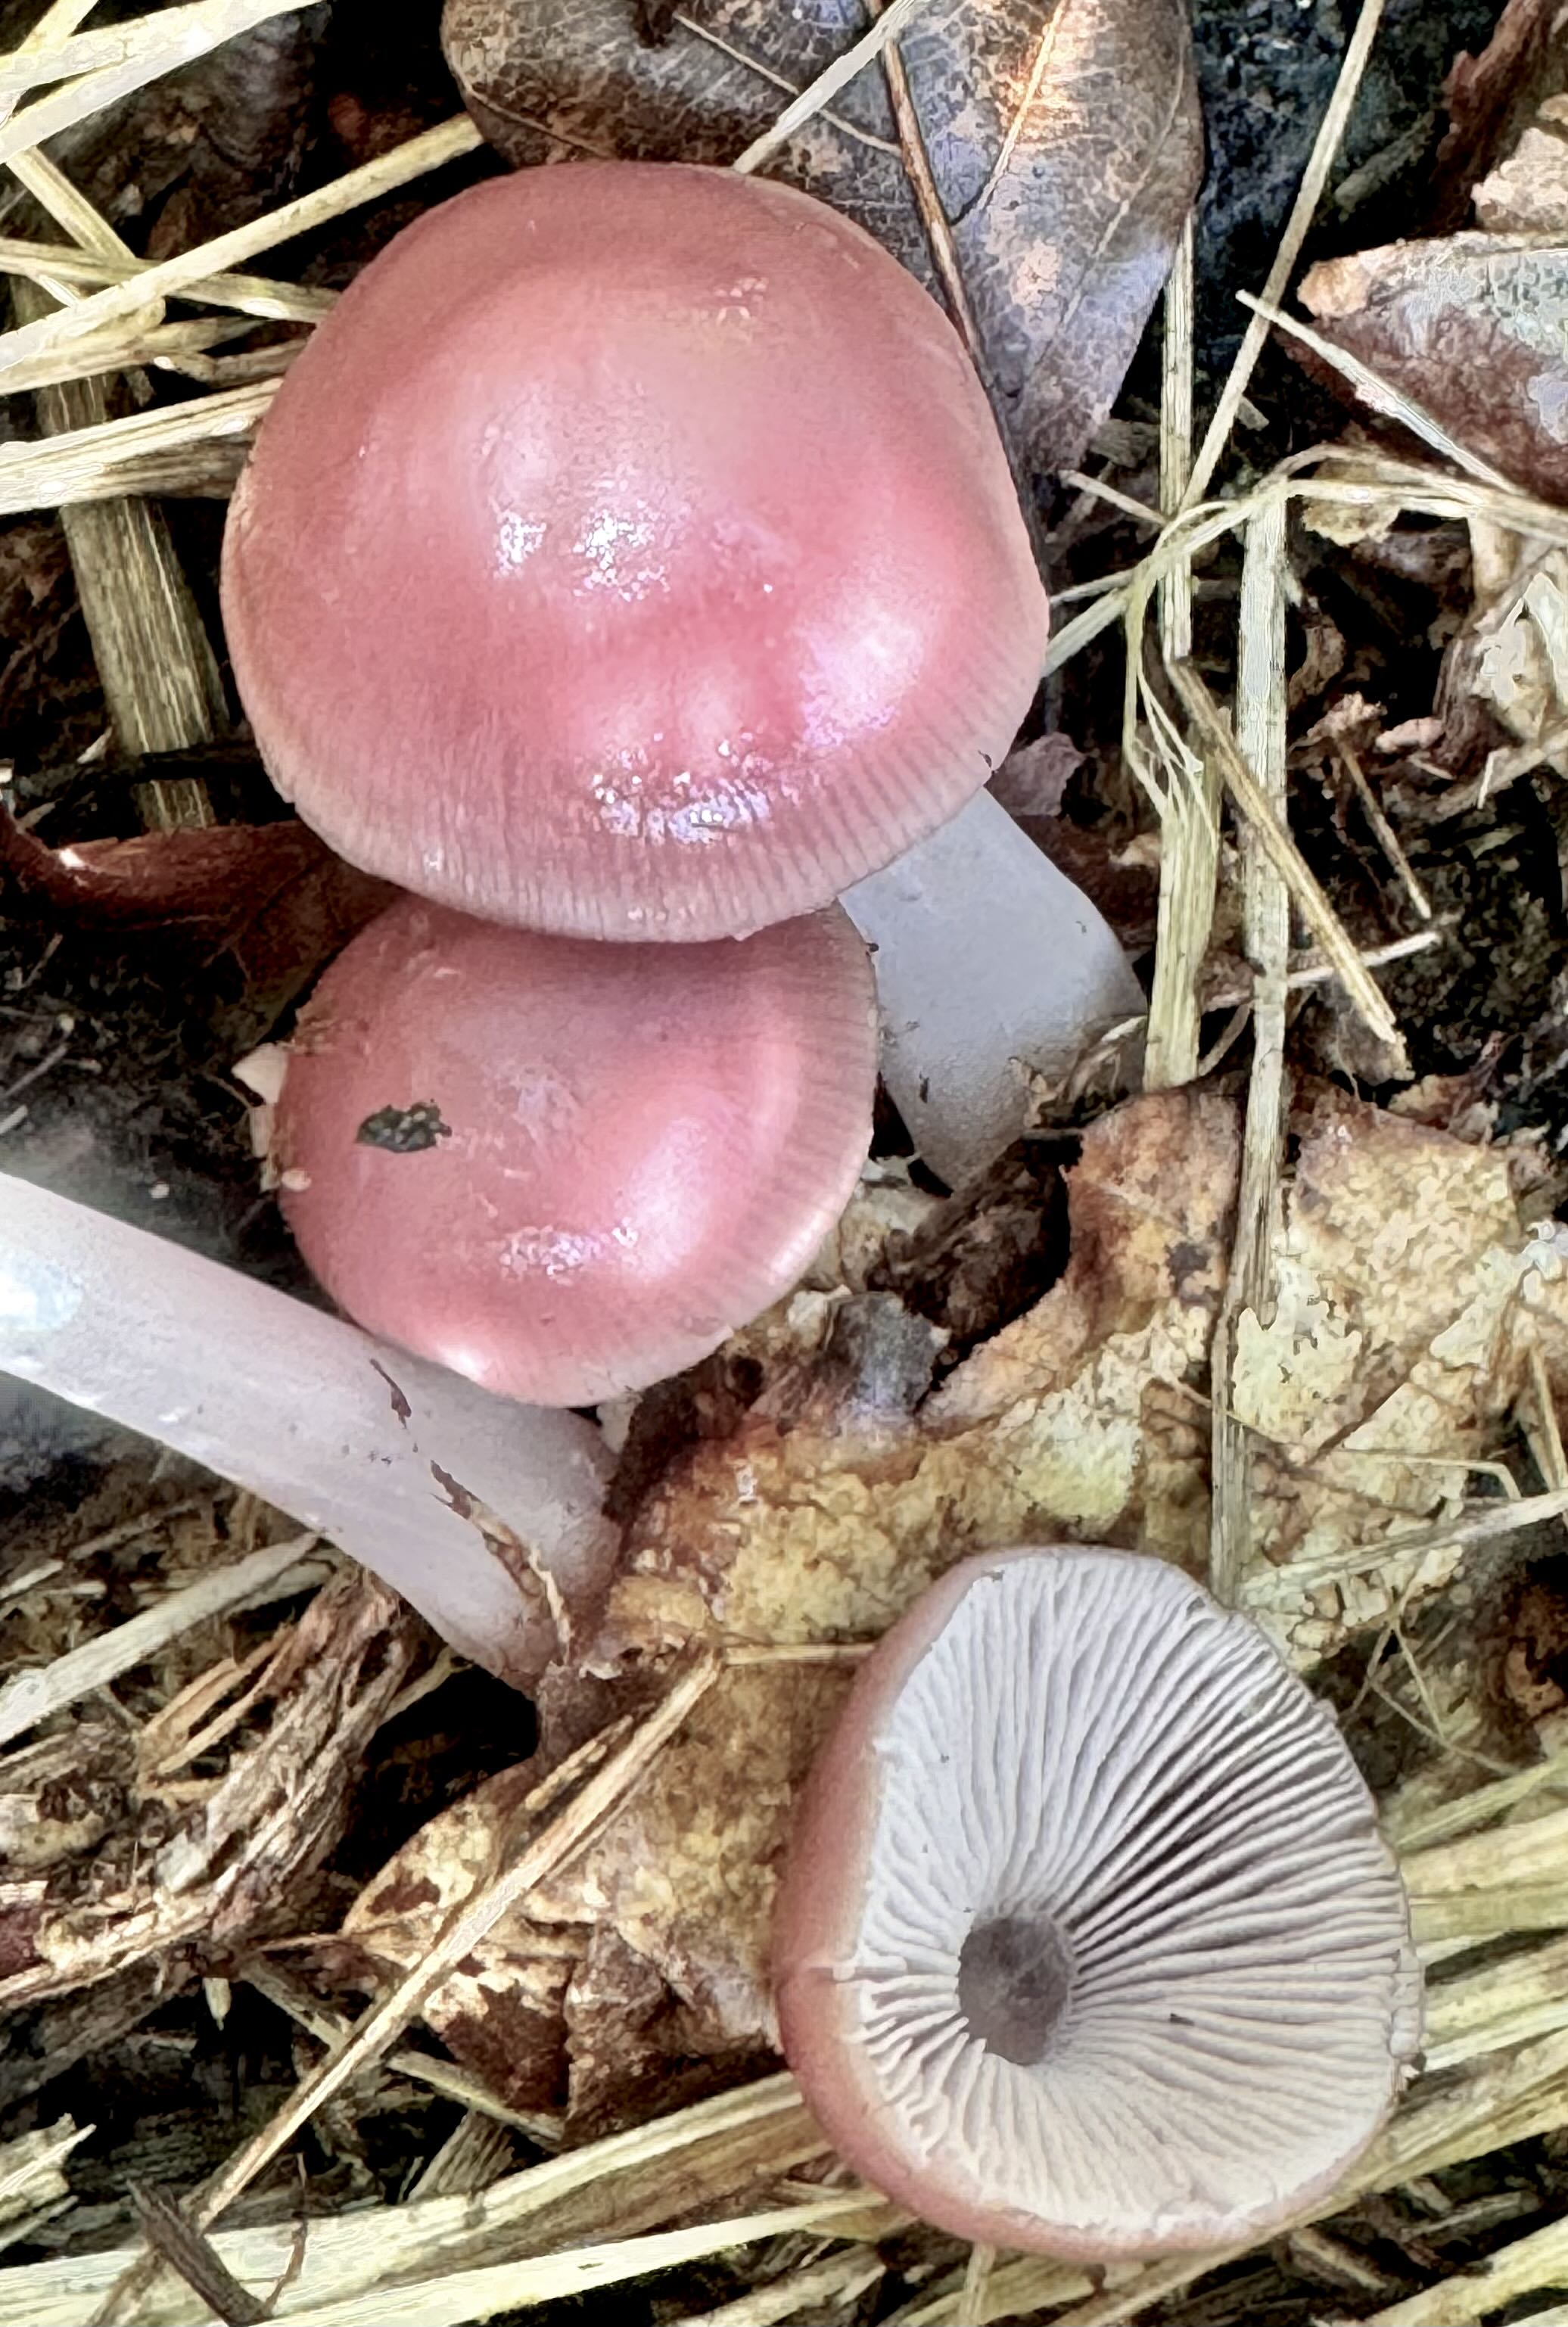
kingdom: Fungi
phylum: Basidiomycota
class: Agaricomycetes
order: Agaricales
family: Mycenaceae
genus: Mycena
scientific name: Mycena rosea
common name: rosa huesvamp
